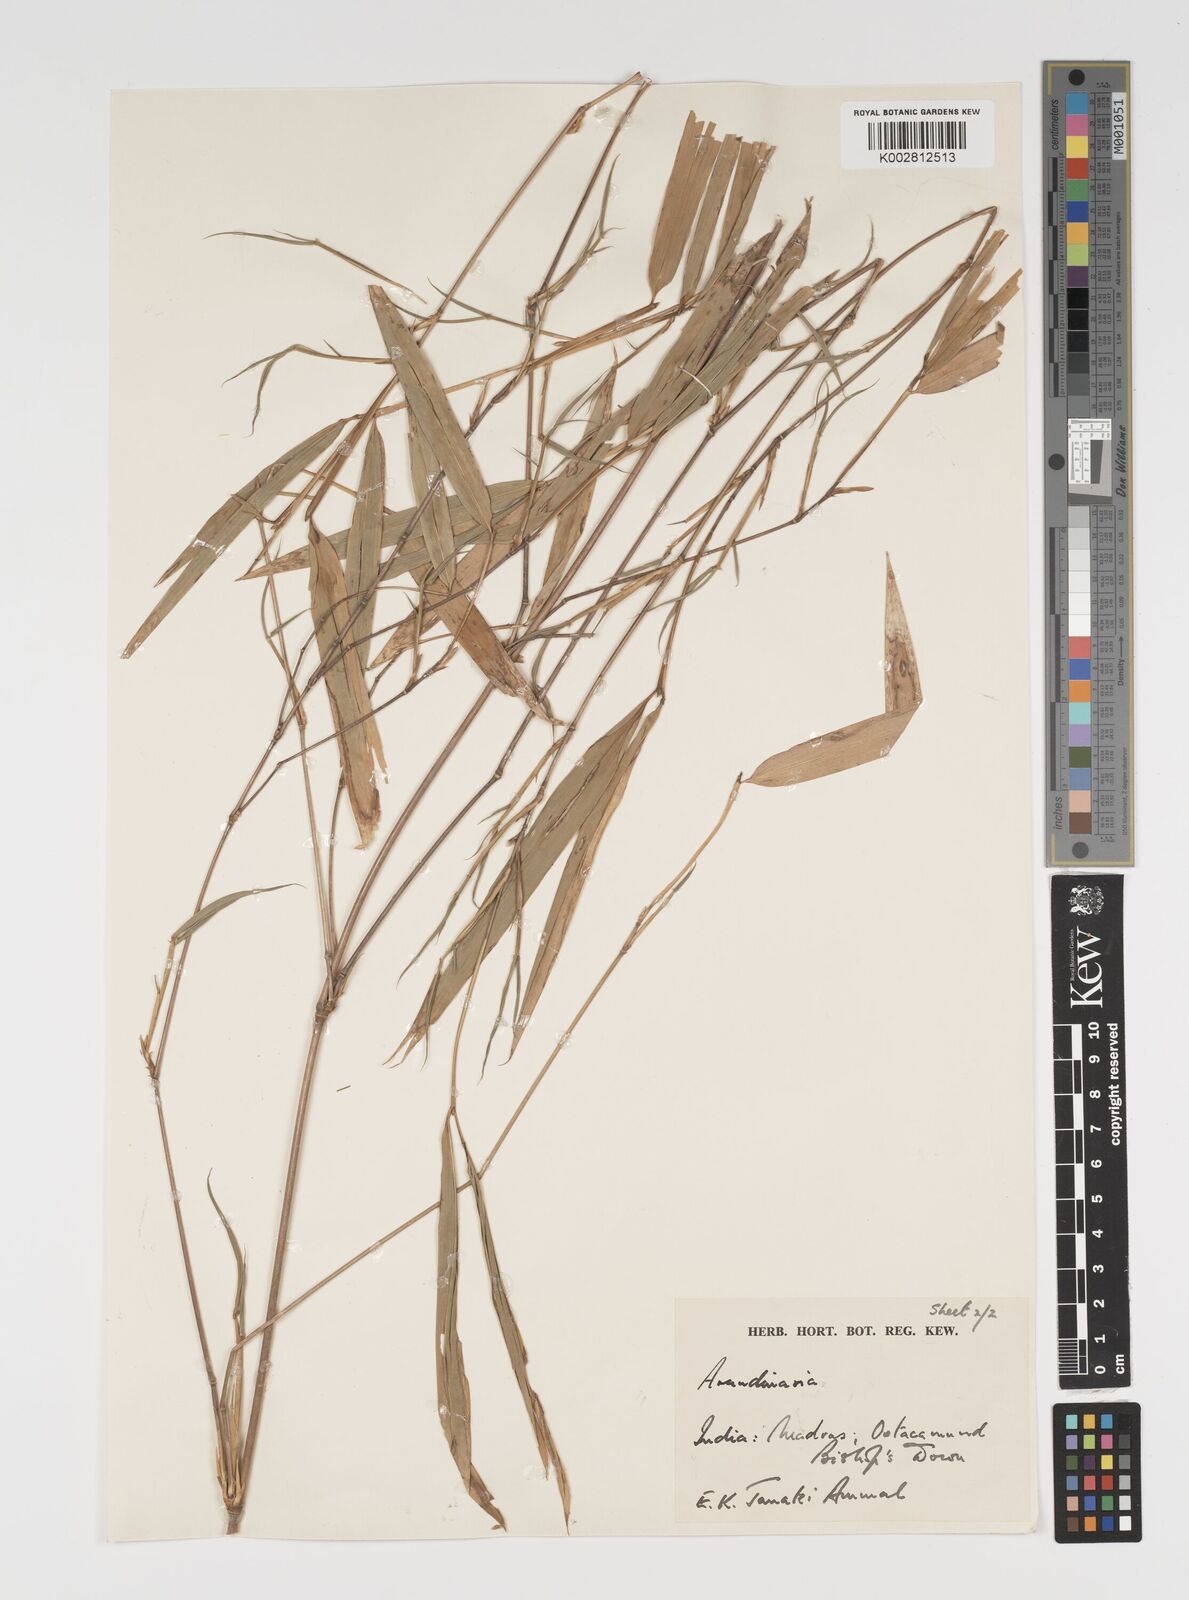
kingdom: Plantae
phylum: Tracheophyta
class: Liliopsida
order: Poales
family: Poaceae
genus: Arundinaria
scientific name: Arundinaria
